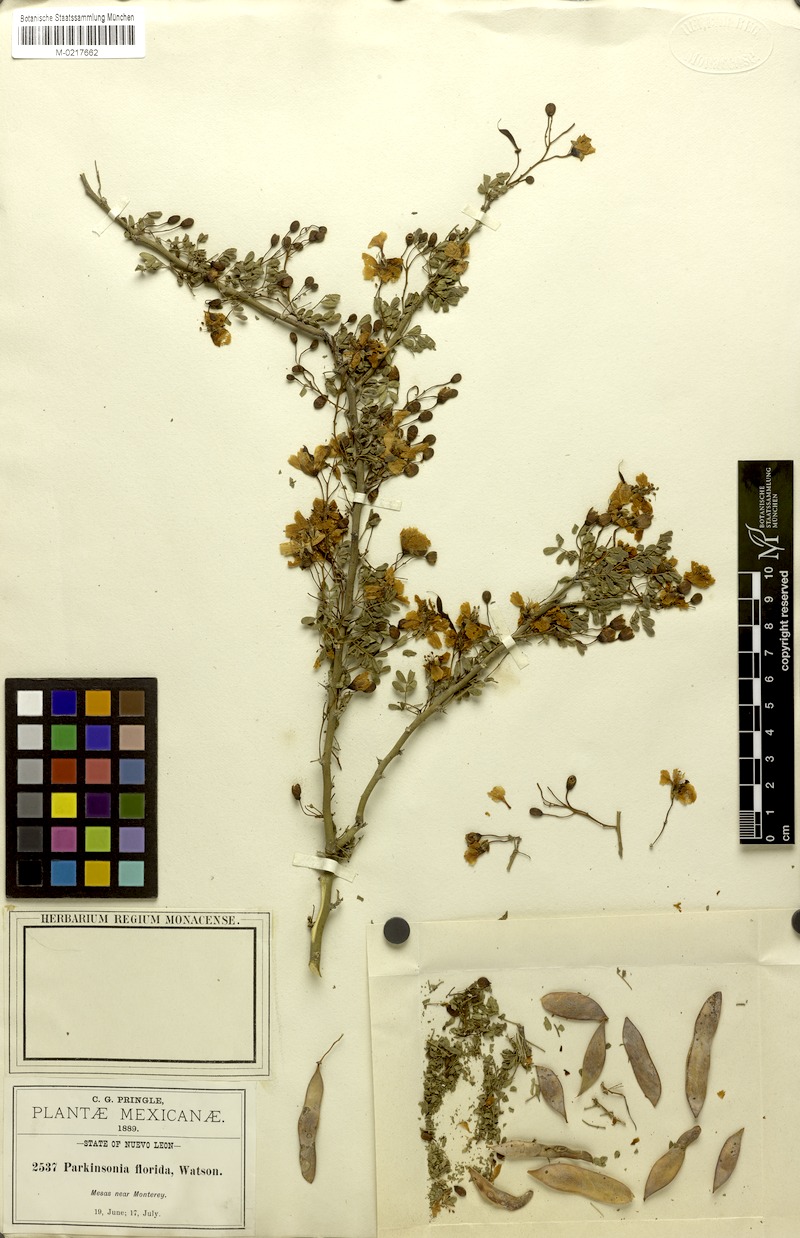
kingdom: Plantae
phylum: Tracheophyta
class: Magnoliopsida
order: Fabales
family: Fabaceae
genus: Parkinsonia
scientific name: Parkinsonia texana
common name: Texas paloverde
